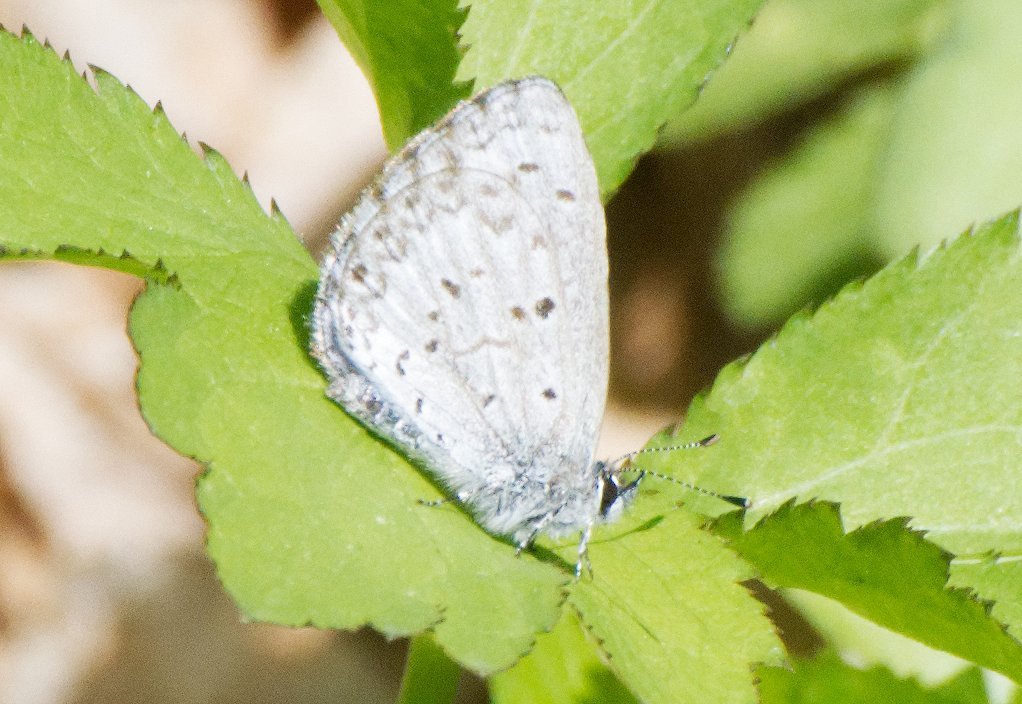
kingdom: Animalia
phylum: Arthropoda
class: Insecta
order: Lepidoptera
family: Lycaenidae
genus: Celastrina
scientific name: Celastrina lucia
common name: Northern Spring Azure
